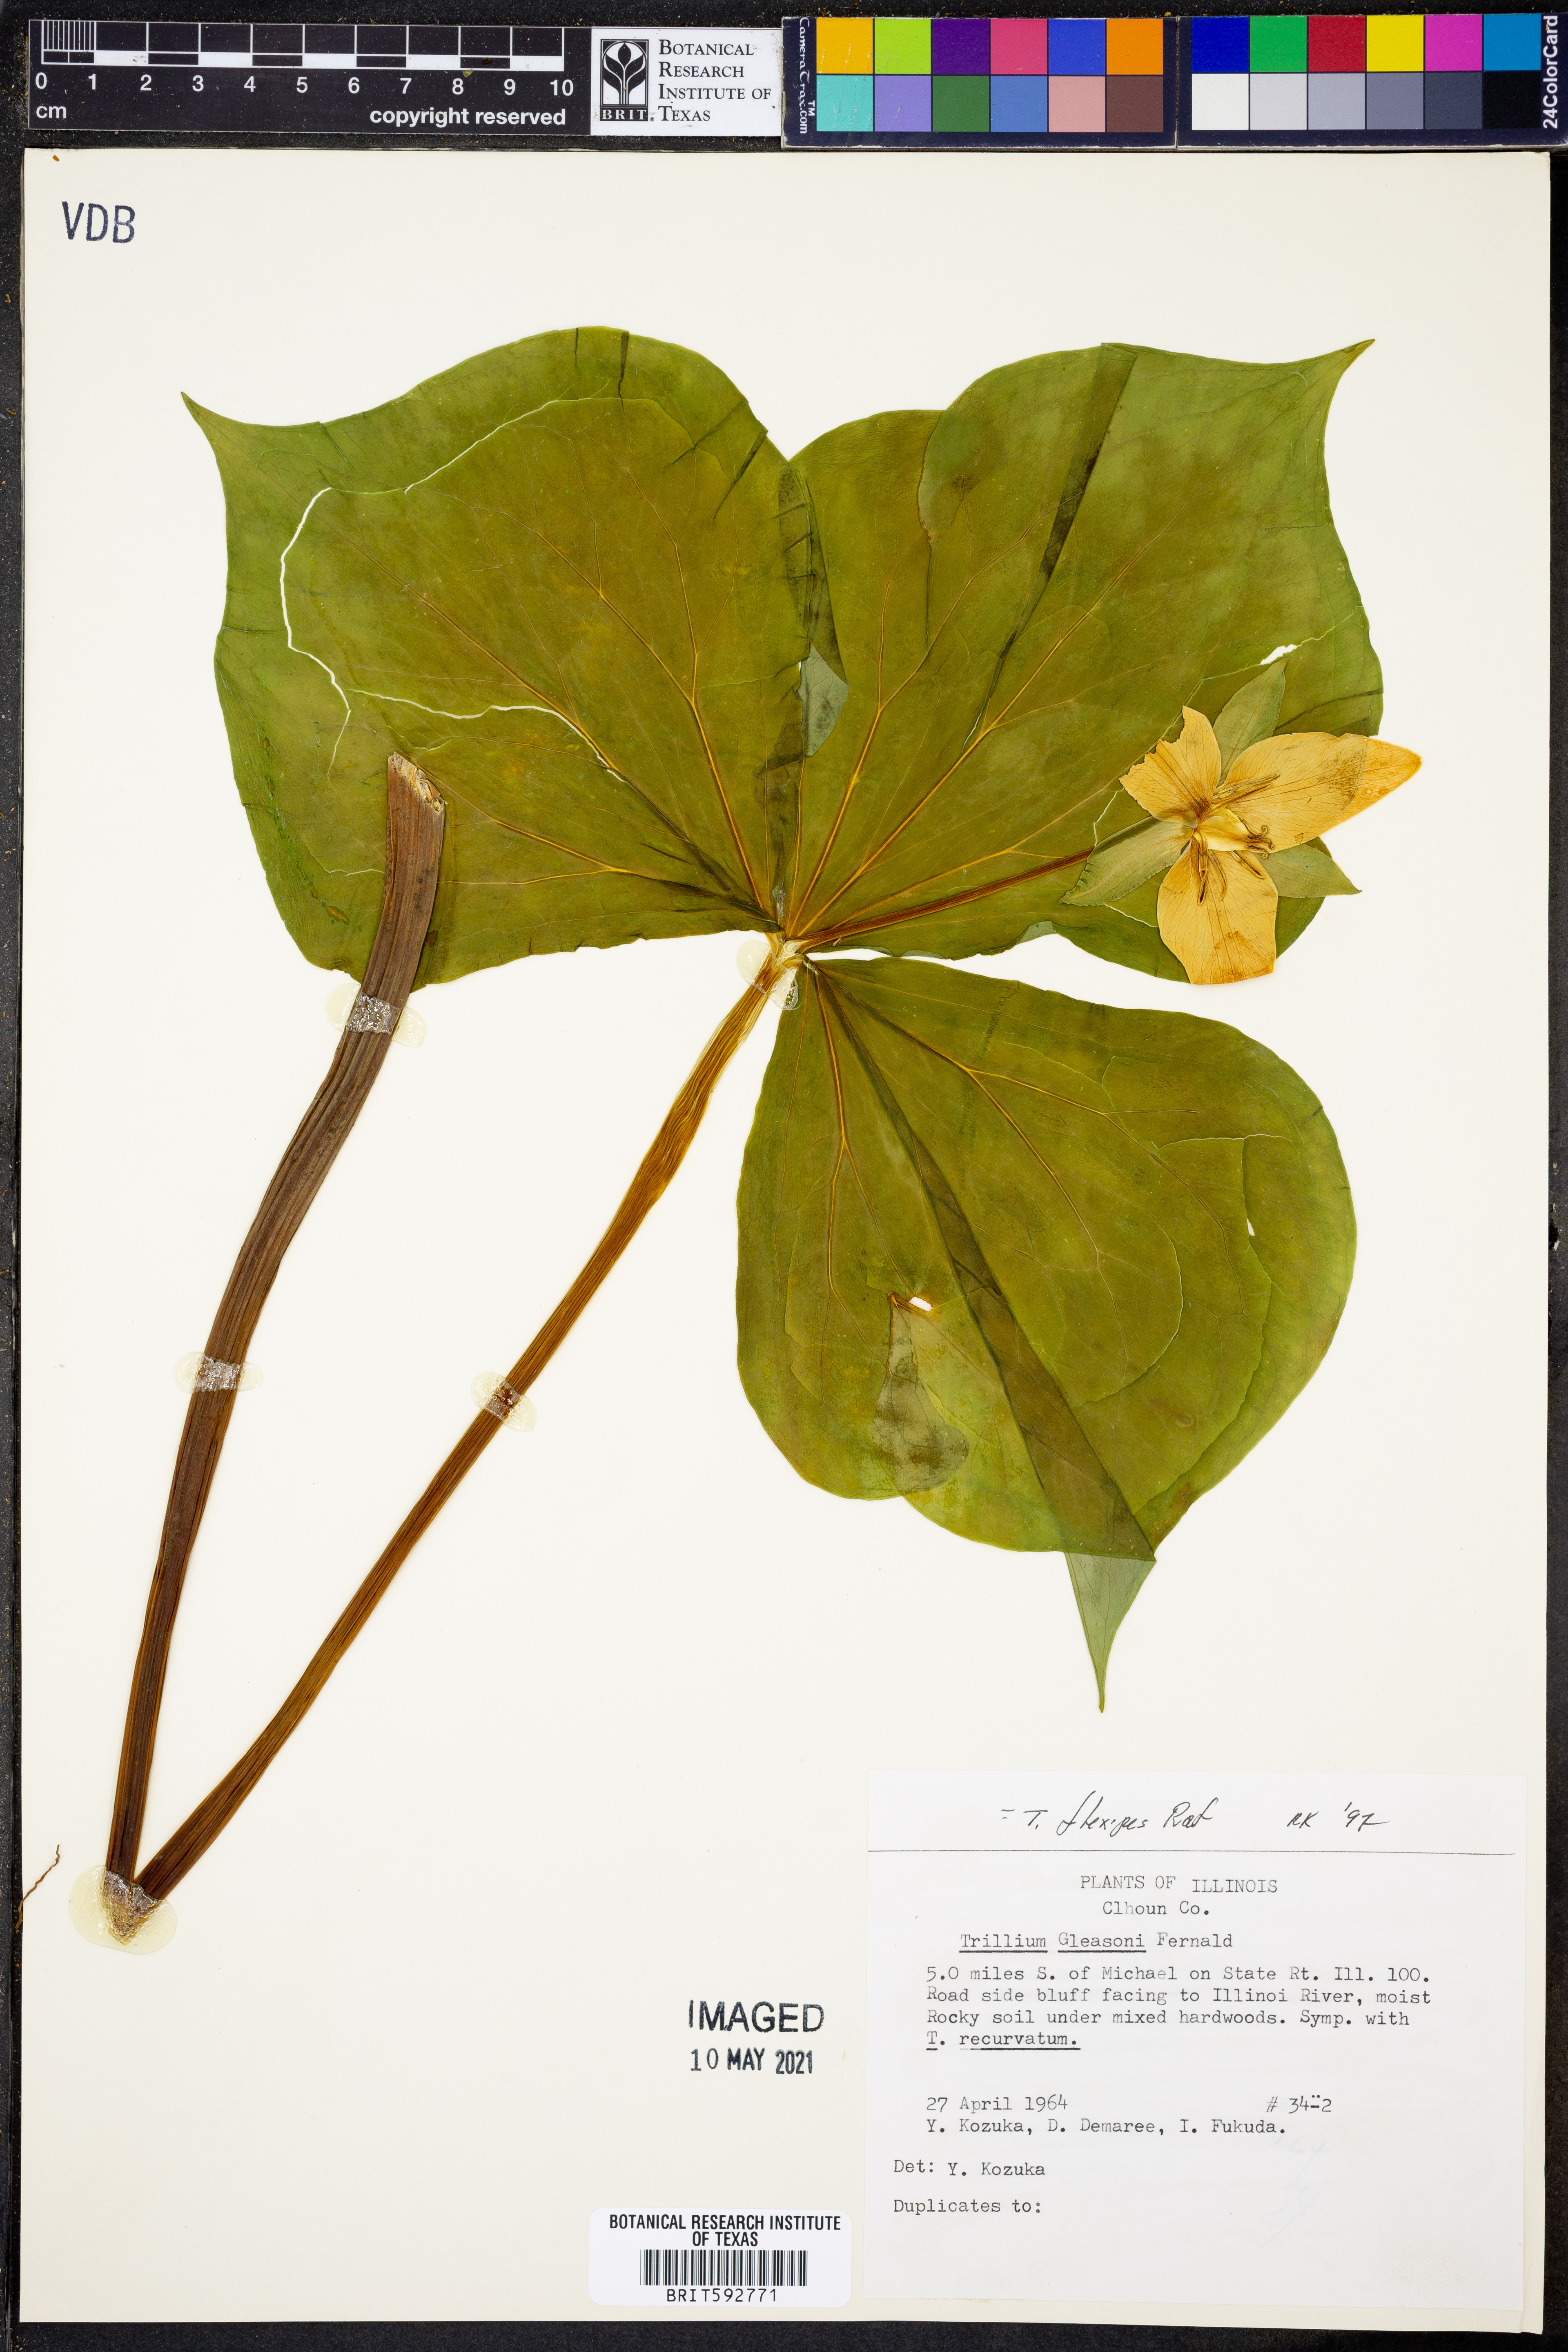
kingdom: Plantae
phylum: Tracheophyta
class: Liliopsida
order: Liliales
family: Melanthiaceae
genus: Trillium
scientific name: Trillium flexipes
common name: Drooping trillium
